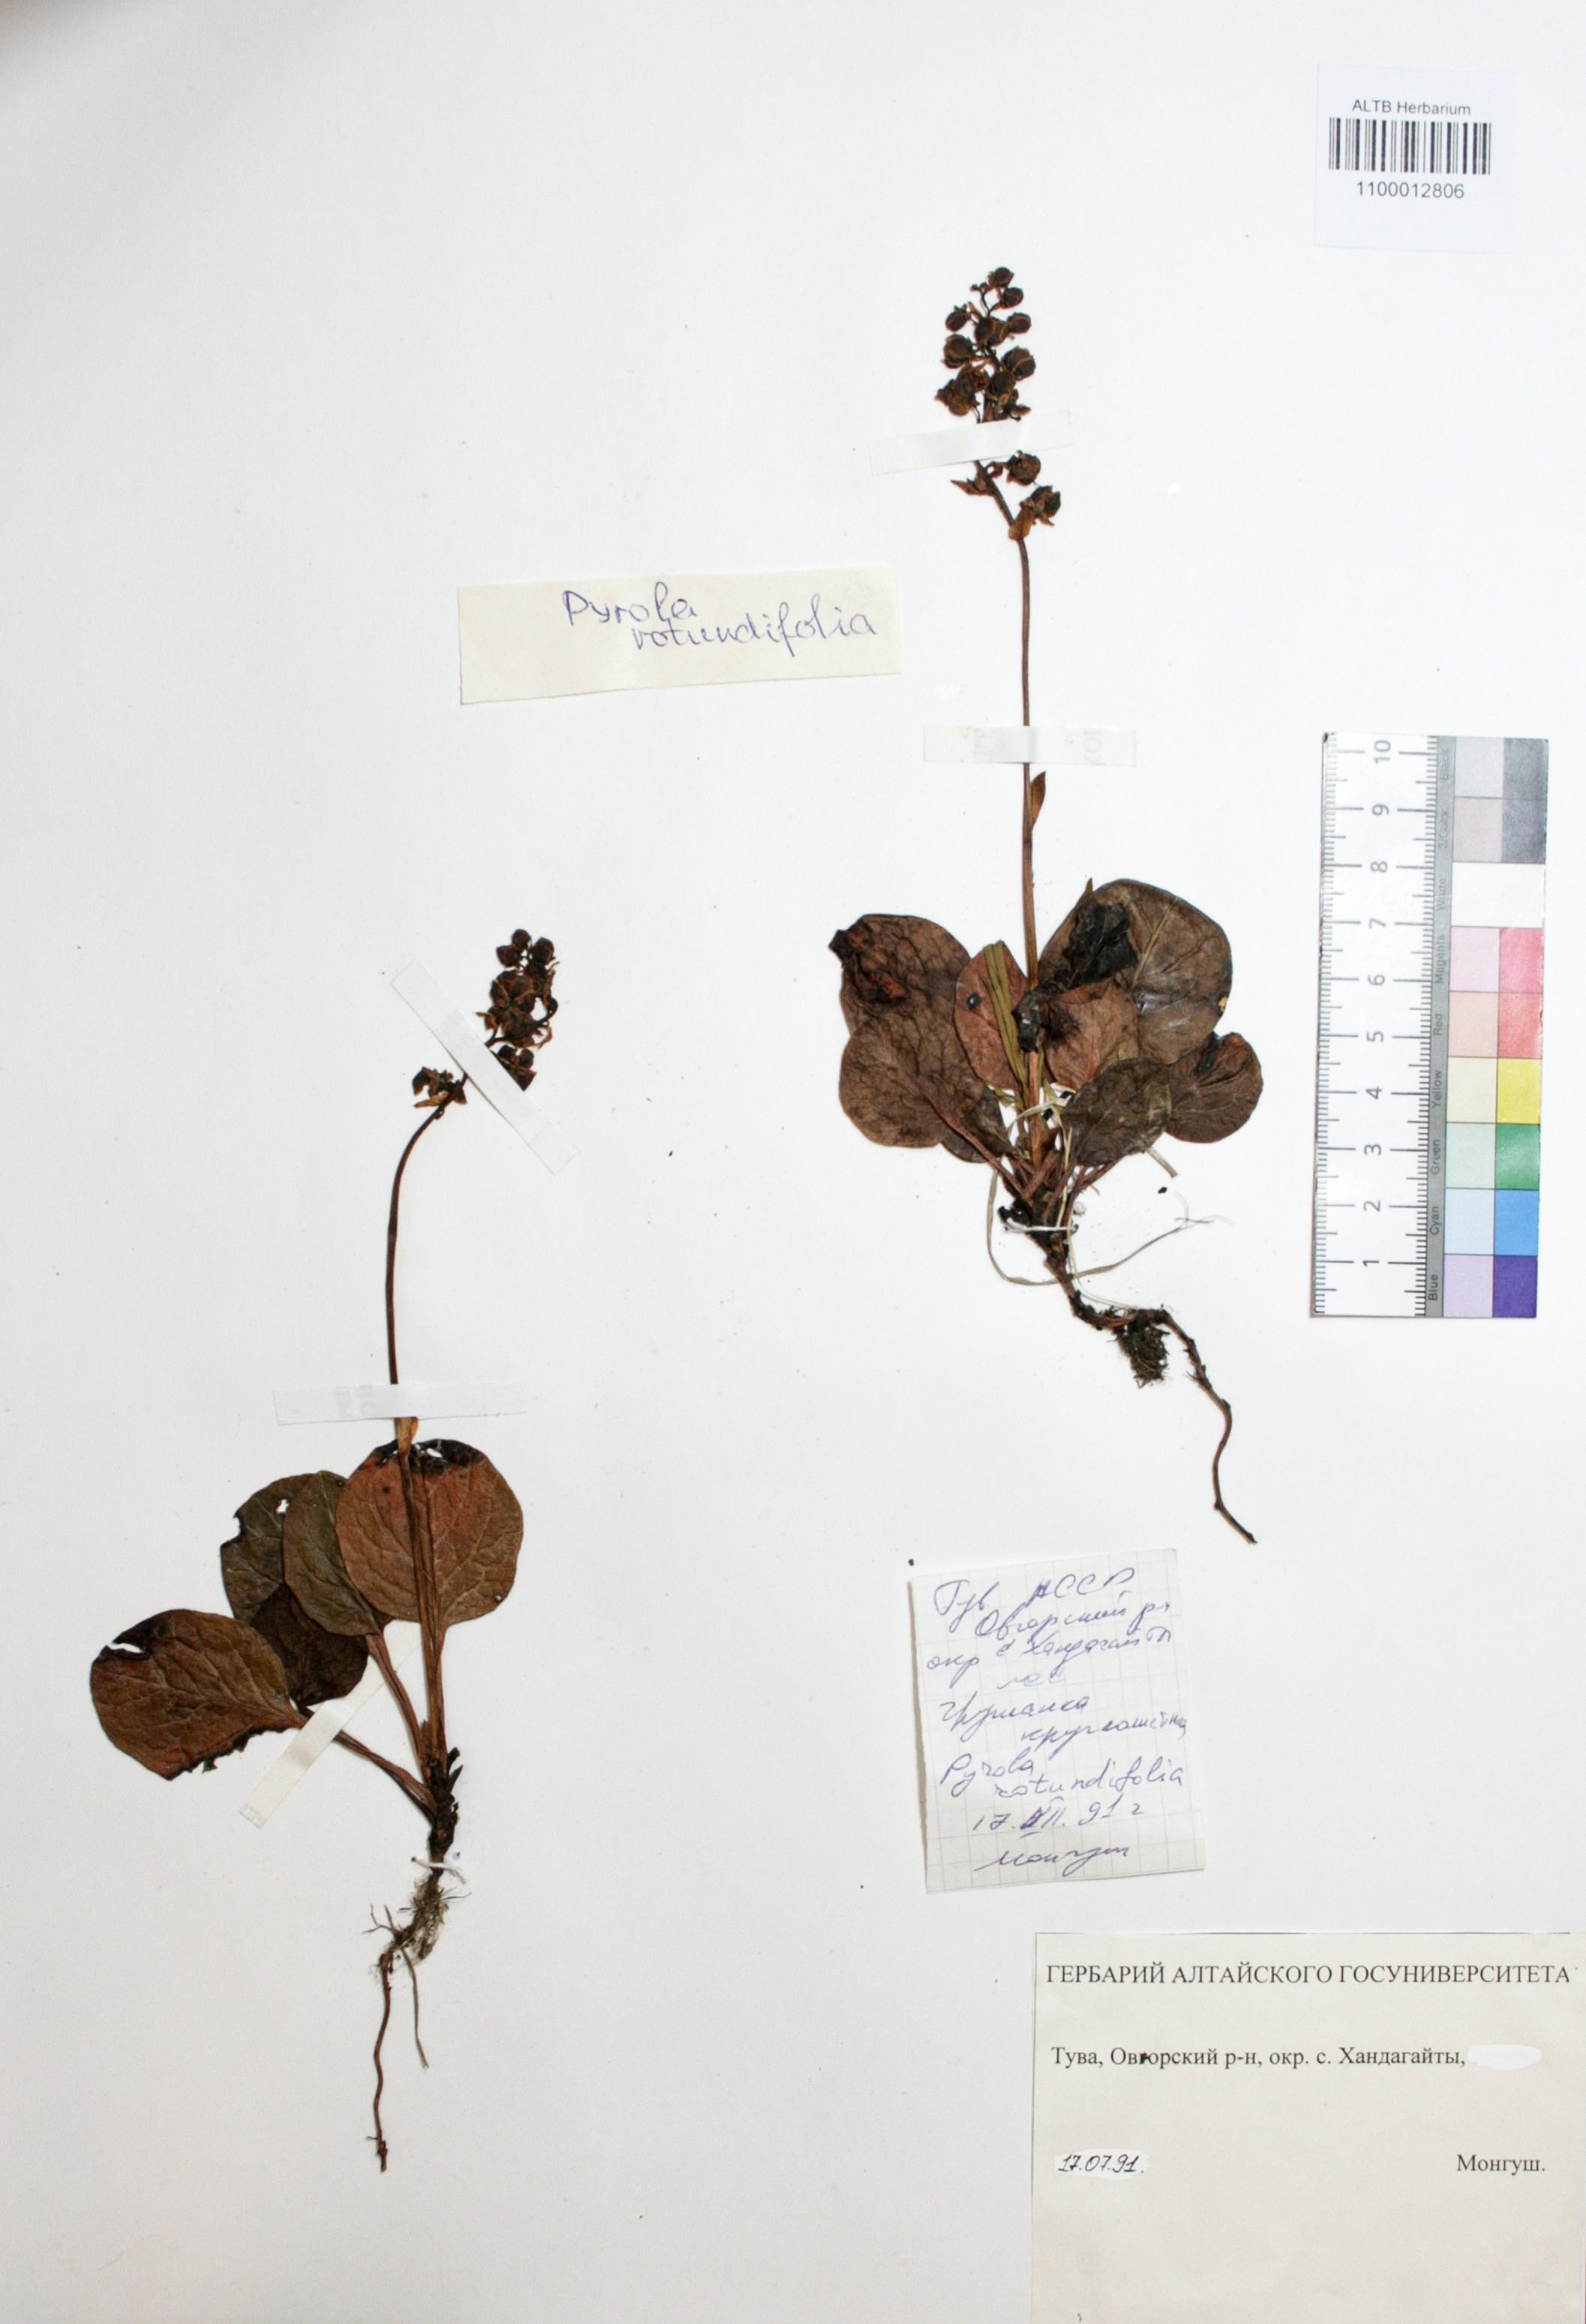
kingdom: Plantae
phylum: Tracheophyta
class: Magnoliopsida
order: Ericales
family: Ericaceae
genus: Pyrola
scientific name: Pyrola rotundifolia
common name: Round-leaved wintergreen
